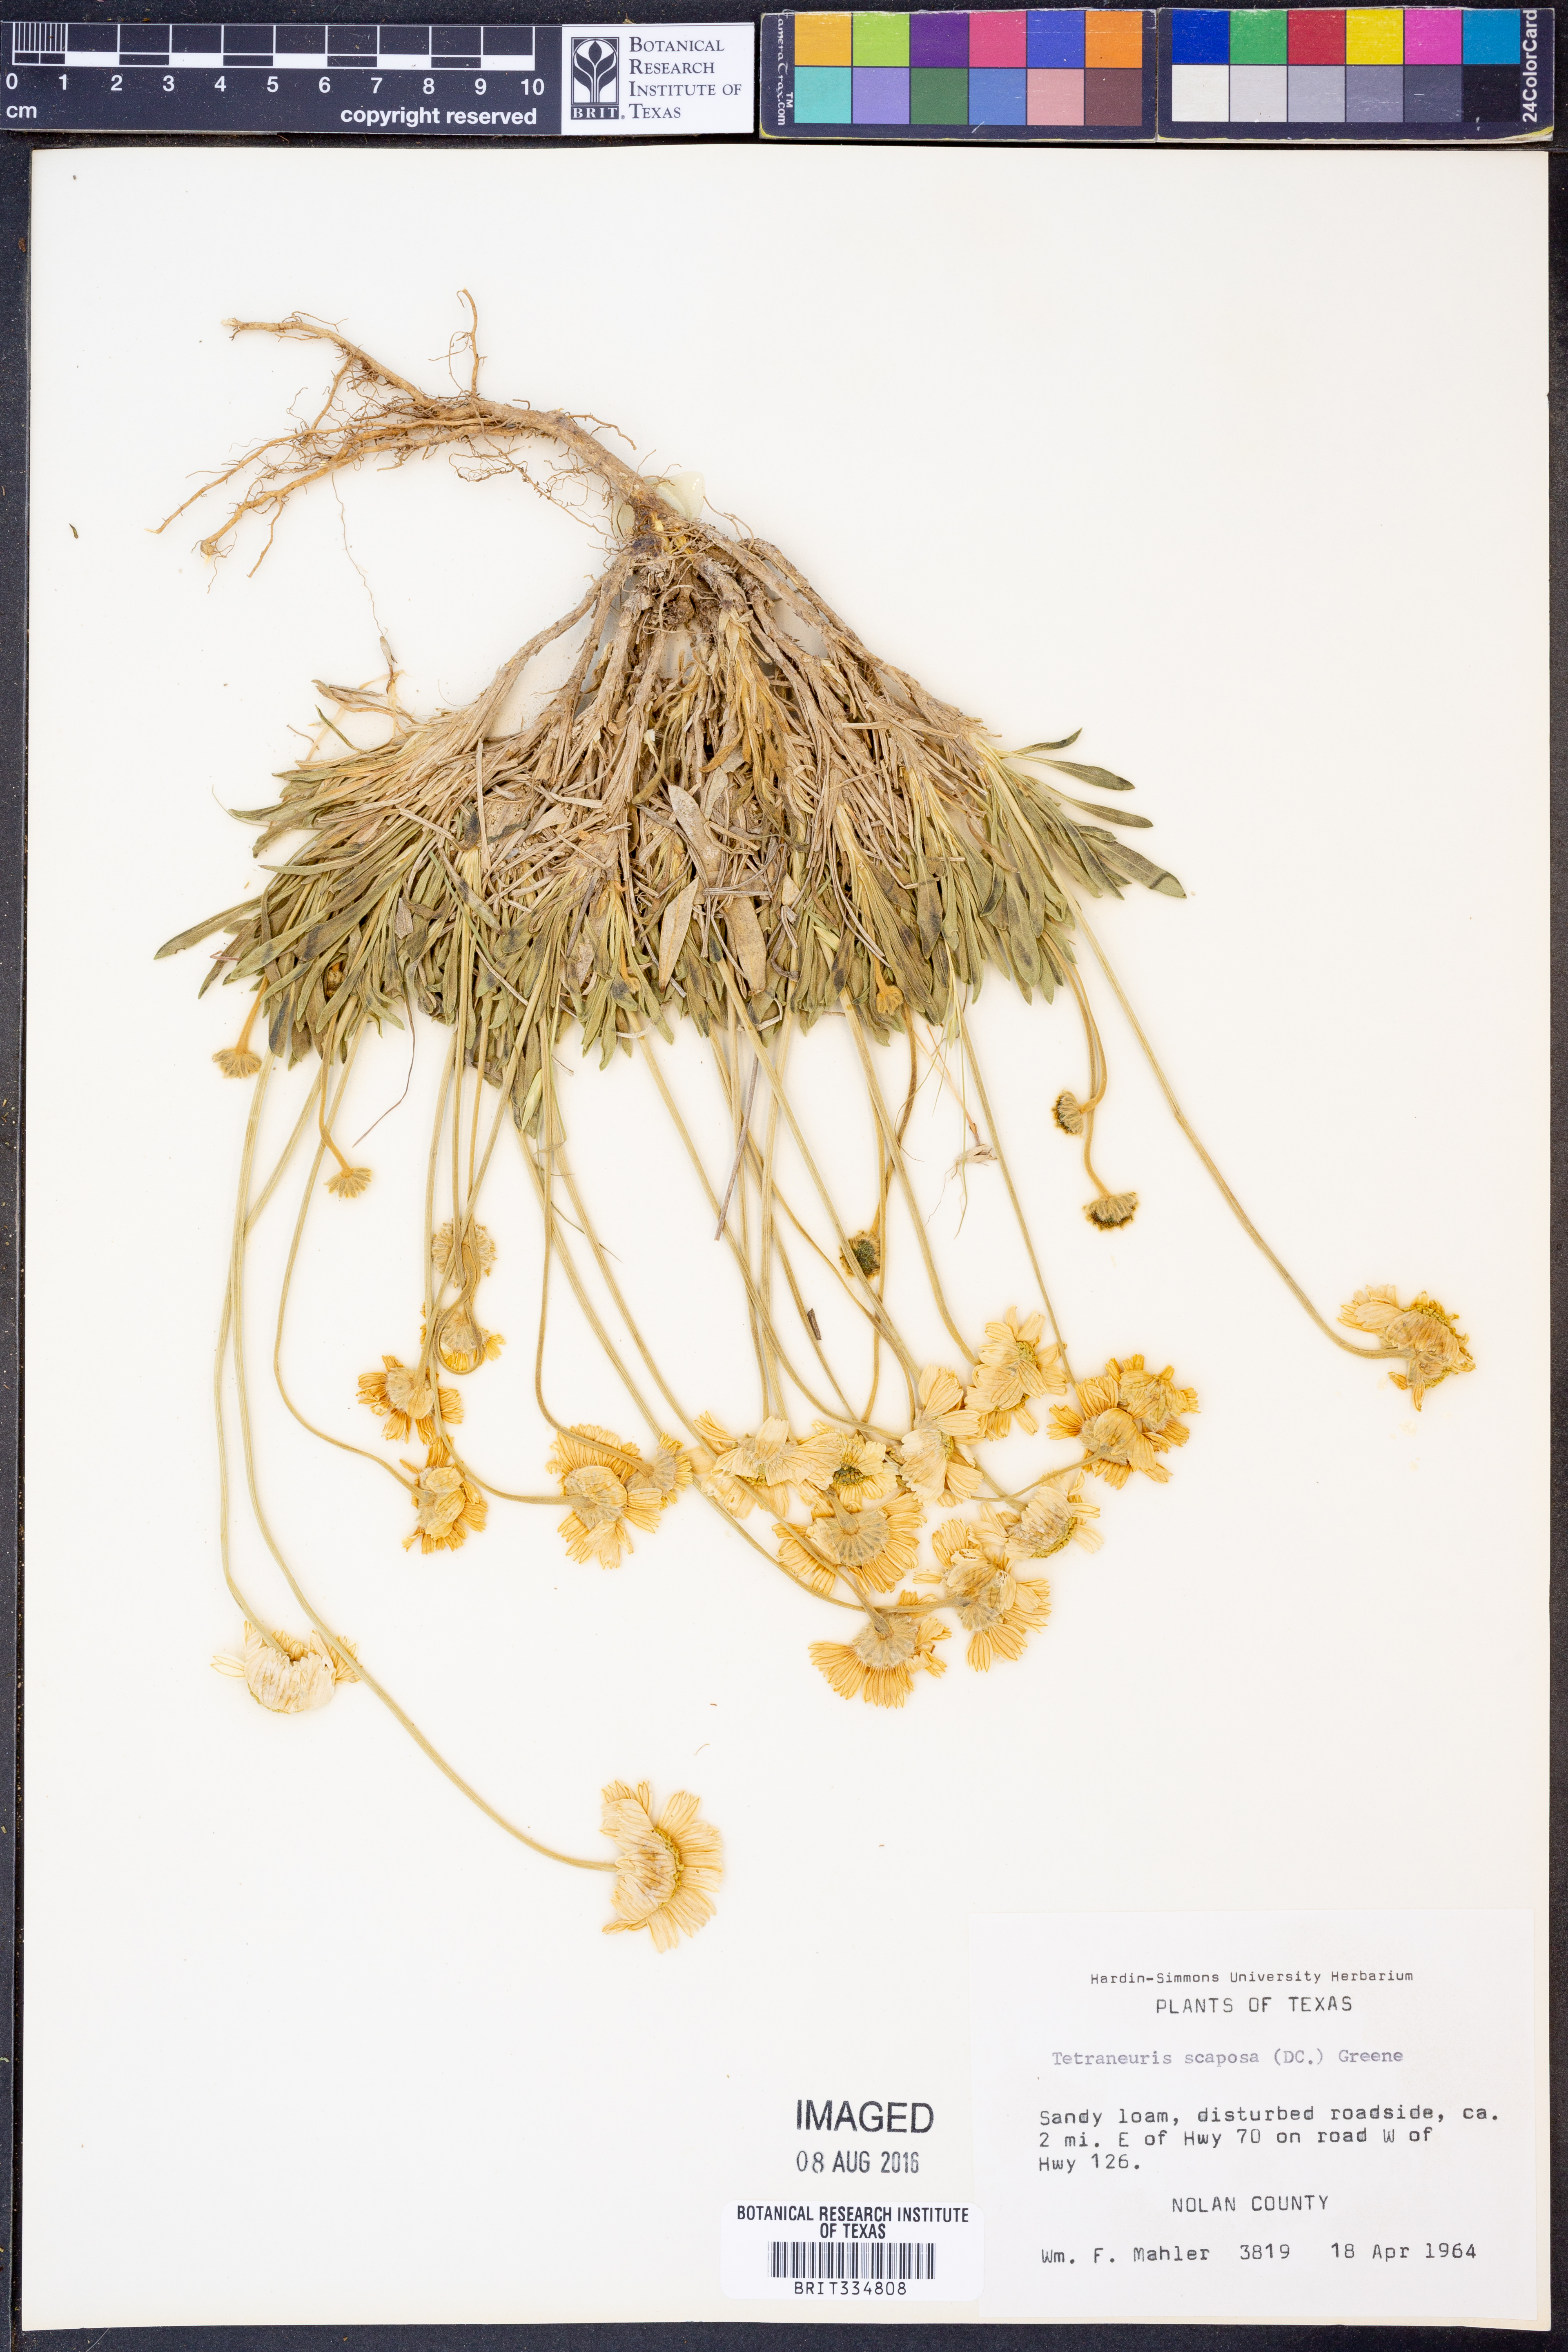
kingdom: Plantae
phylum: Tracheophyta
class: Magnoliopsida
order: Asterales
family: Asteraceae
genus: Tetraneuris
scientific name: Tetraneuris scaposa
